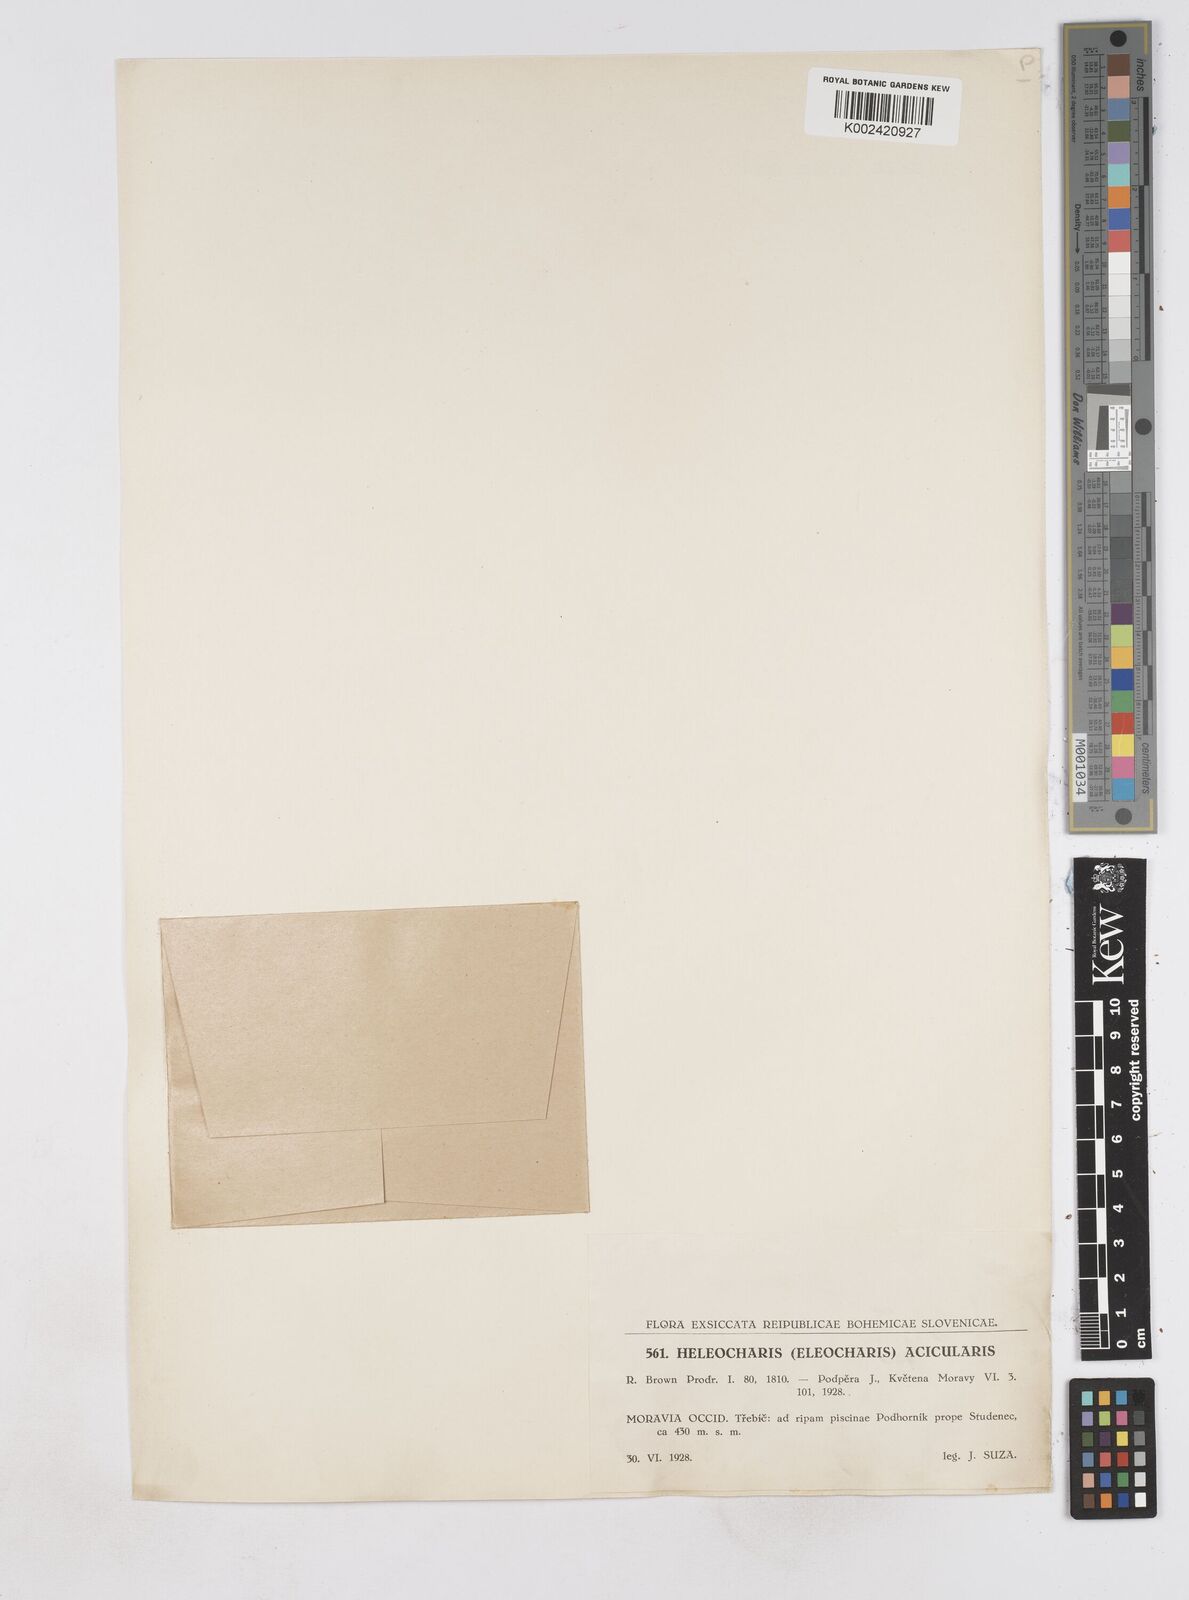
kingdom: Plantae
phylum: Tracheophyta
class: Liliopsida
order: Poales
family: Cyperaceae
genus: Eleocharis
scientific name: Eleocharis acicularis
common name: Needle spike-rush
